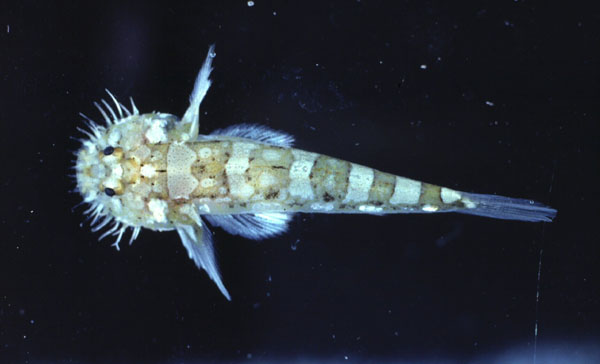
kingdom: Animalia
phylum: Chordata
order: Perciformes
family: Gobiidae
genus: Barbuligobius
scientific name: Barbuligobius boehlkei
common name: Bearded goby
